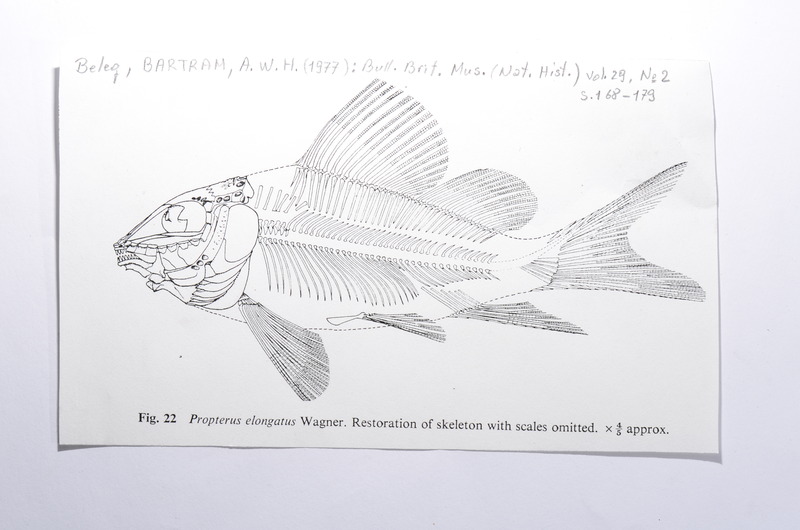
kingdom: Animalia
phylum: Chordata
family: Macrosemiidae
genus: Propterus
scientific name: Propterus elongatus
